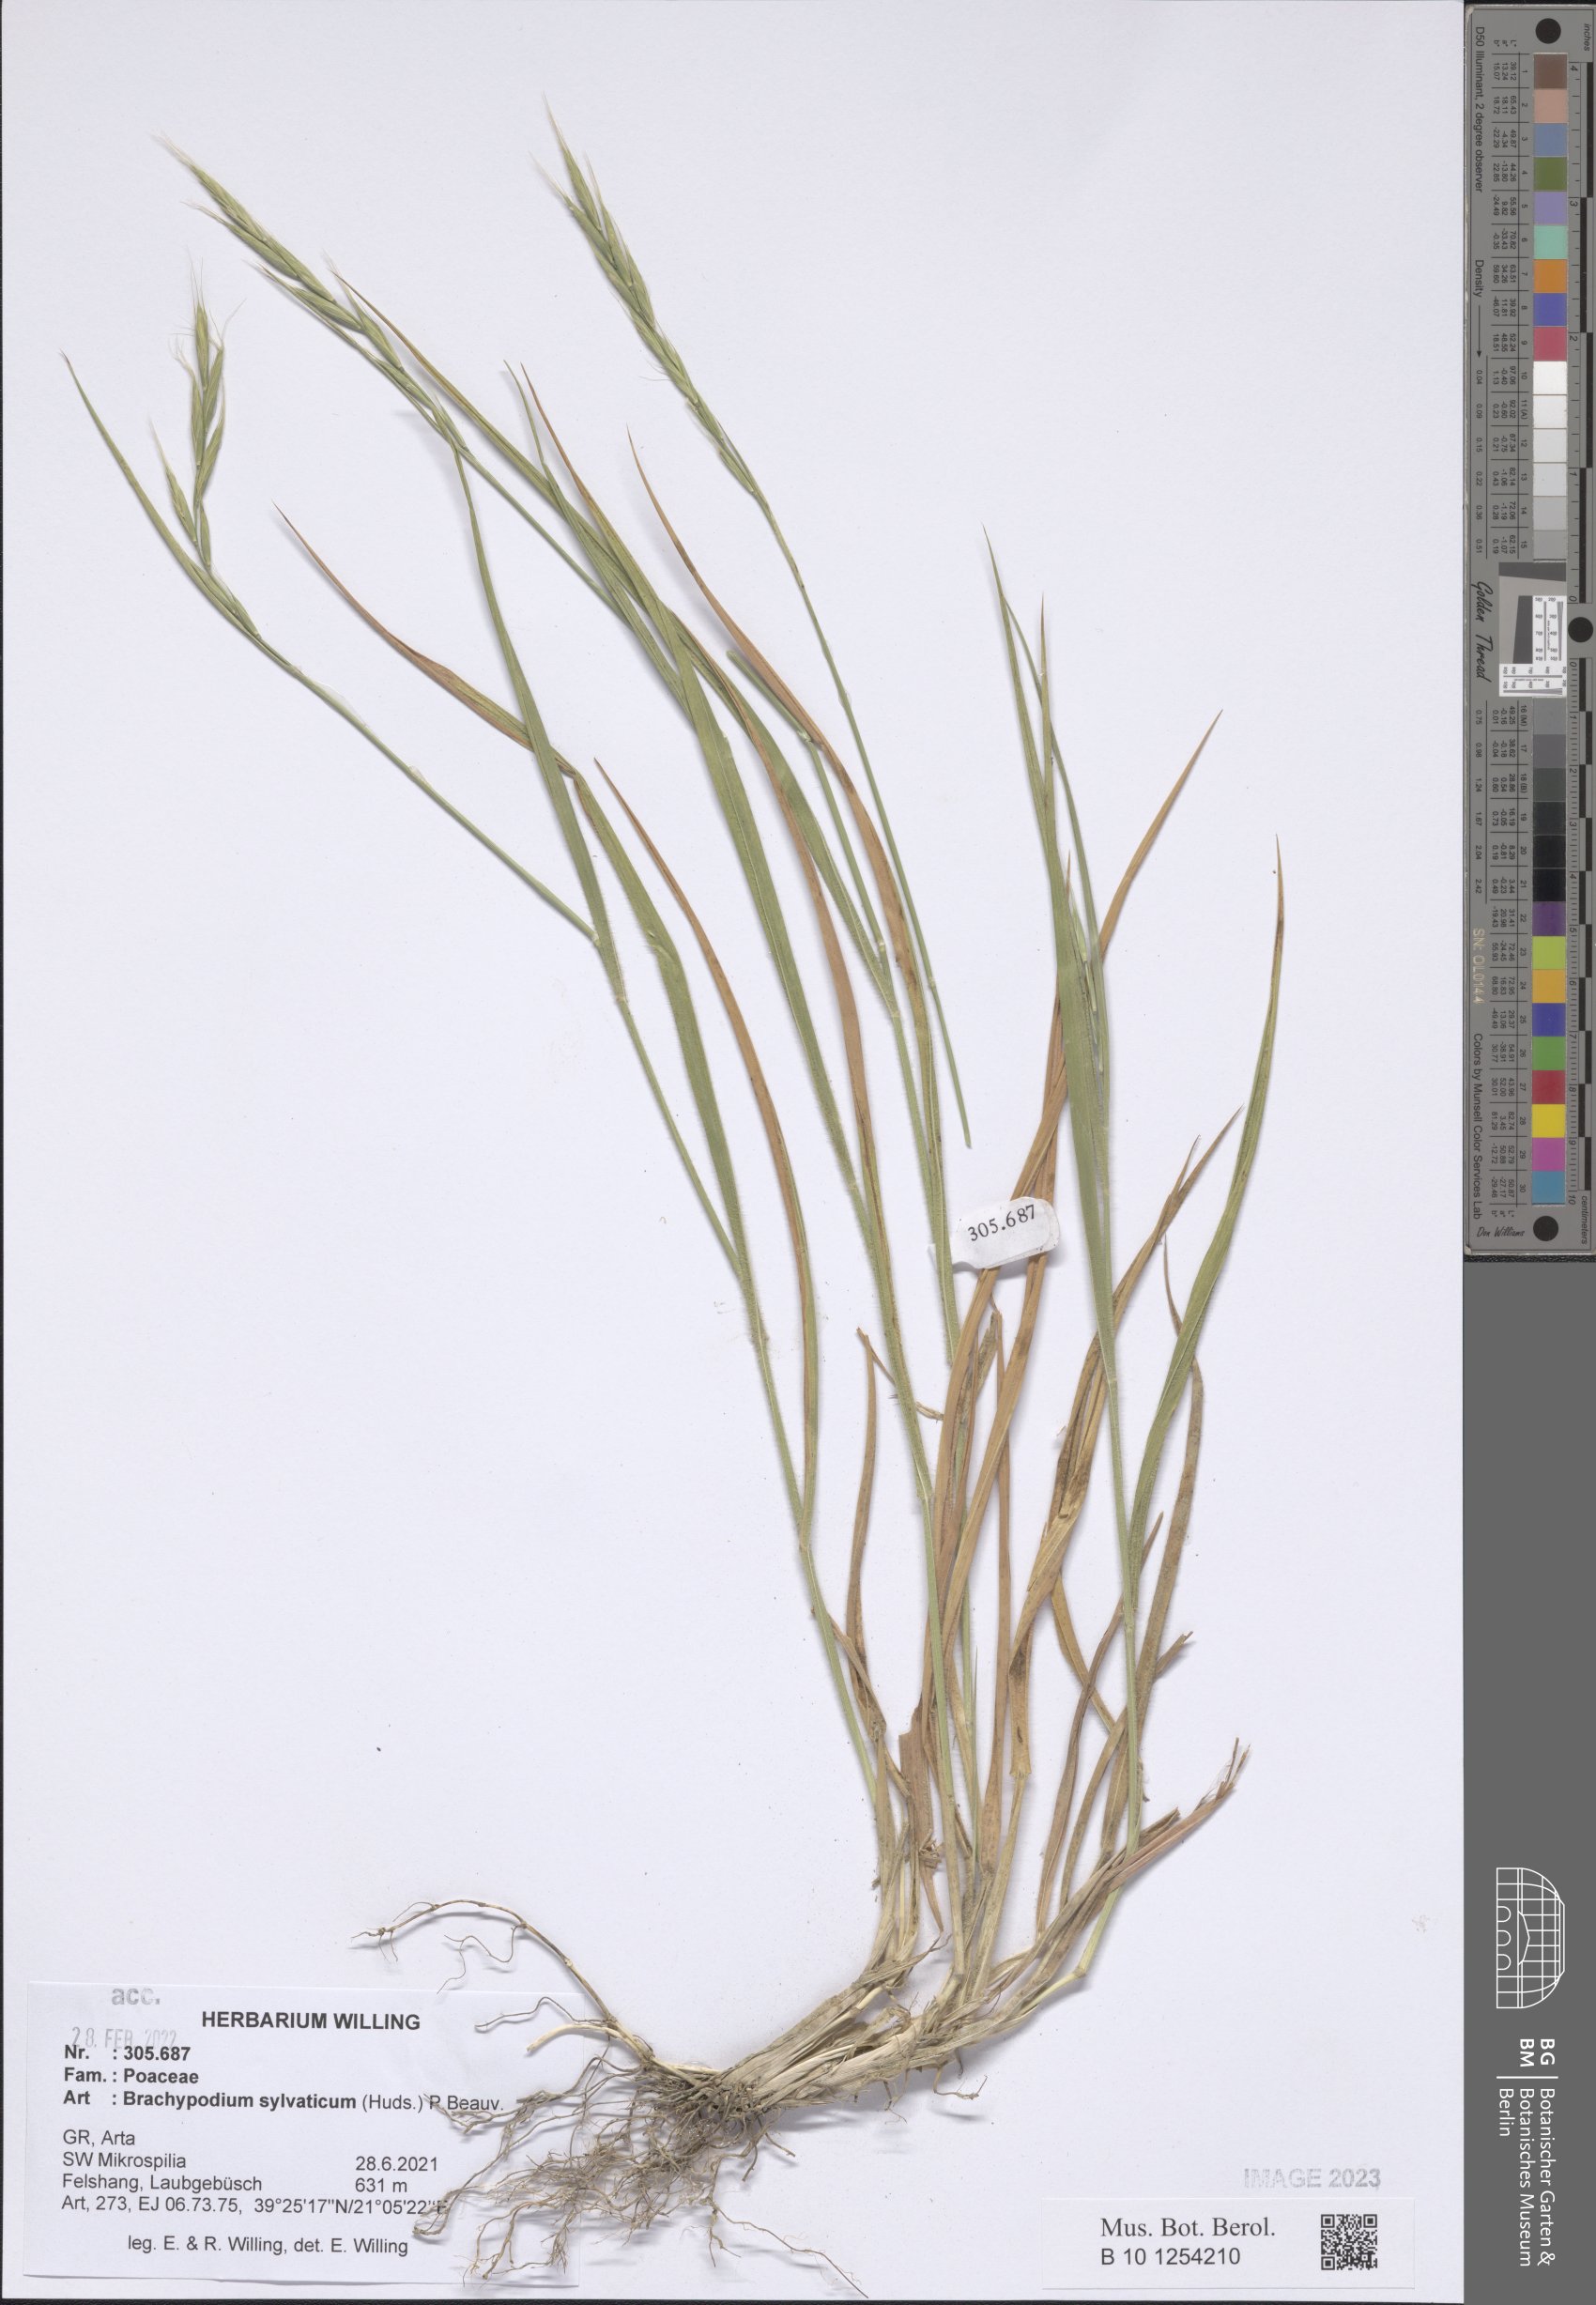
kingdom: Plantae
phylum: Tracheophyta
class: Liliopsida
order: Poales
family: Poaceae
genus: Brachypodium
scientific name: Brachypodium sylvaticum
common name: False-brome
